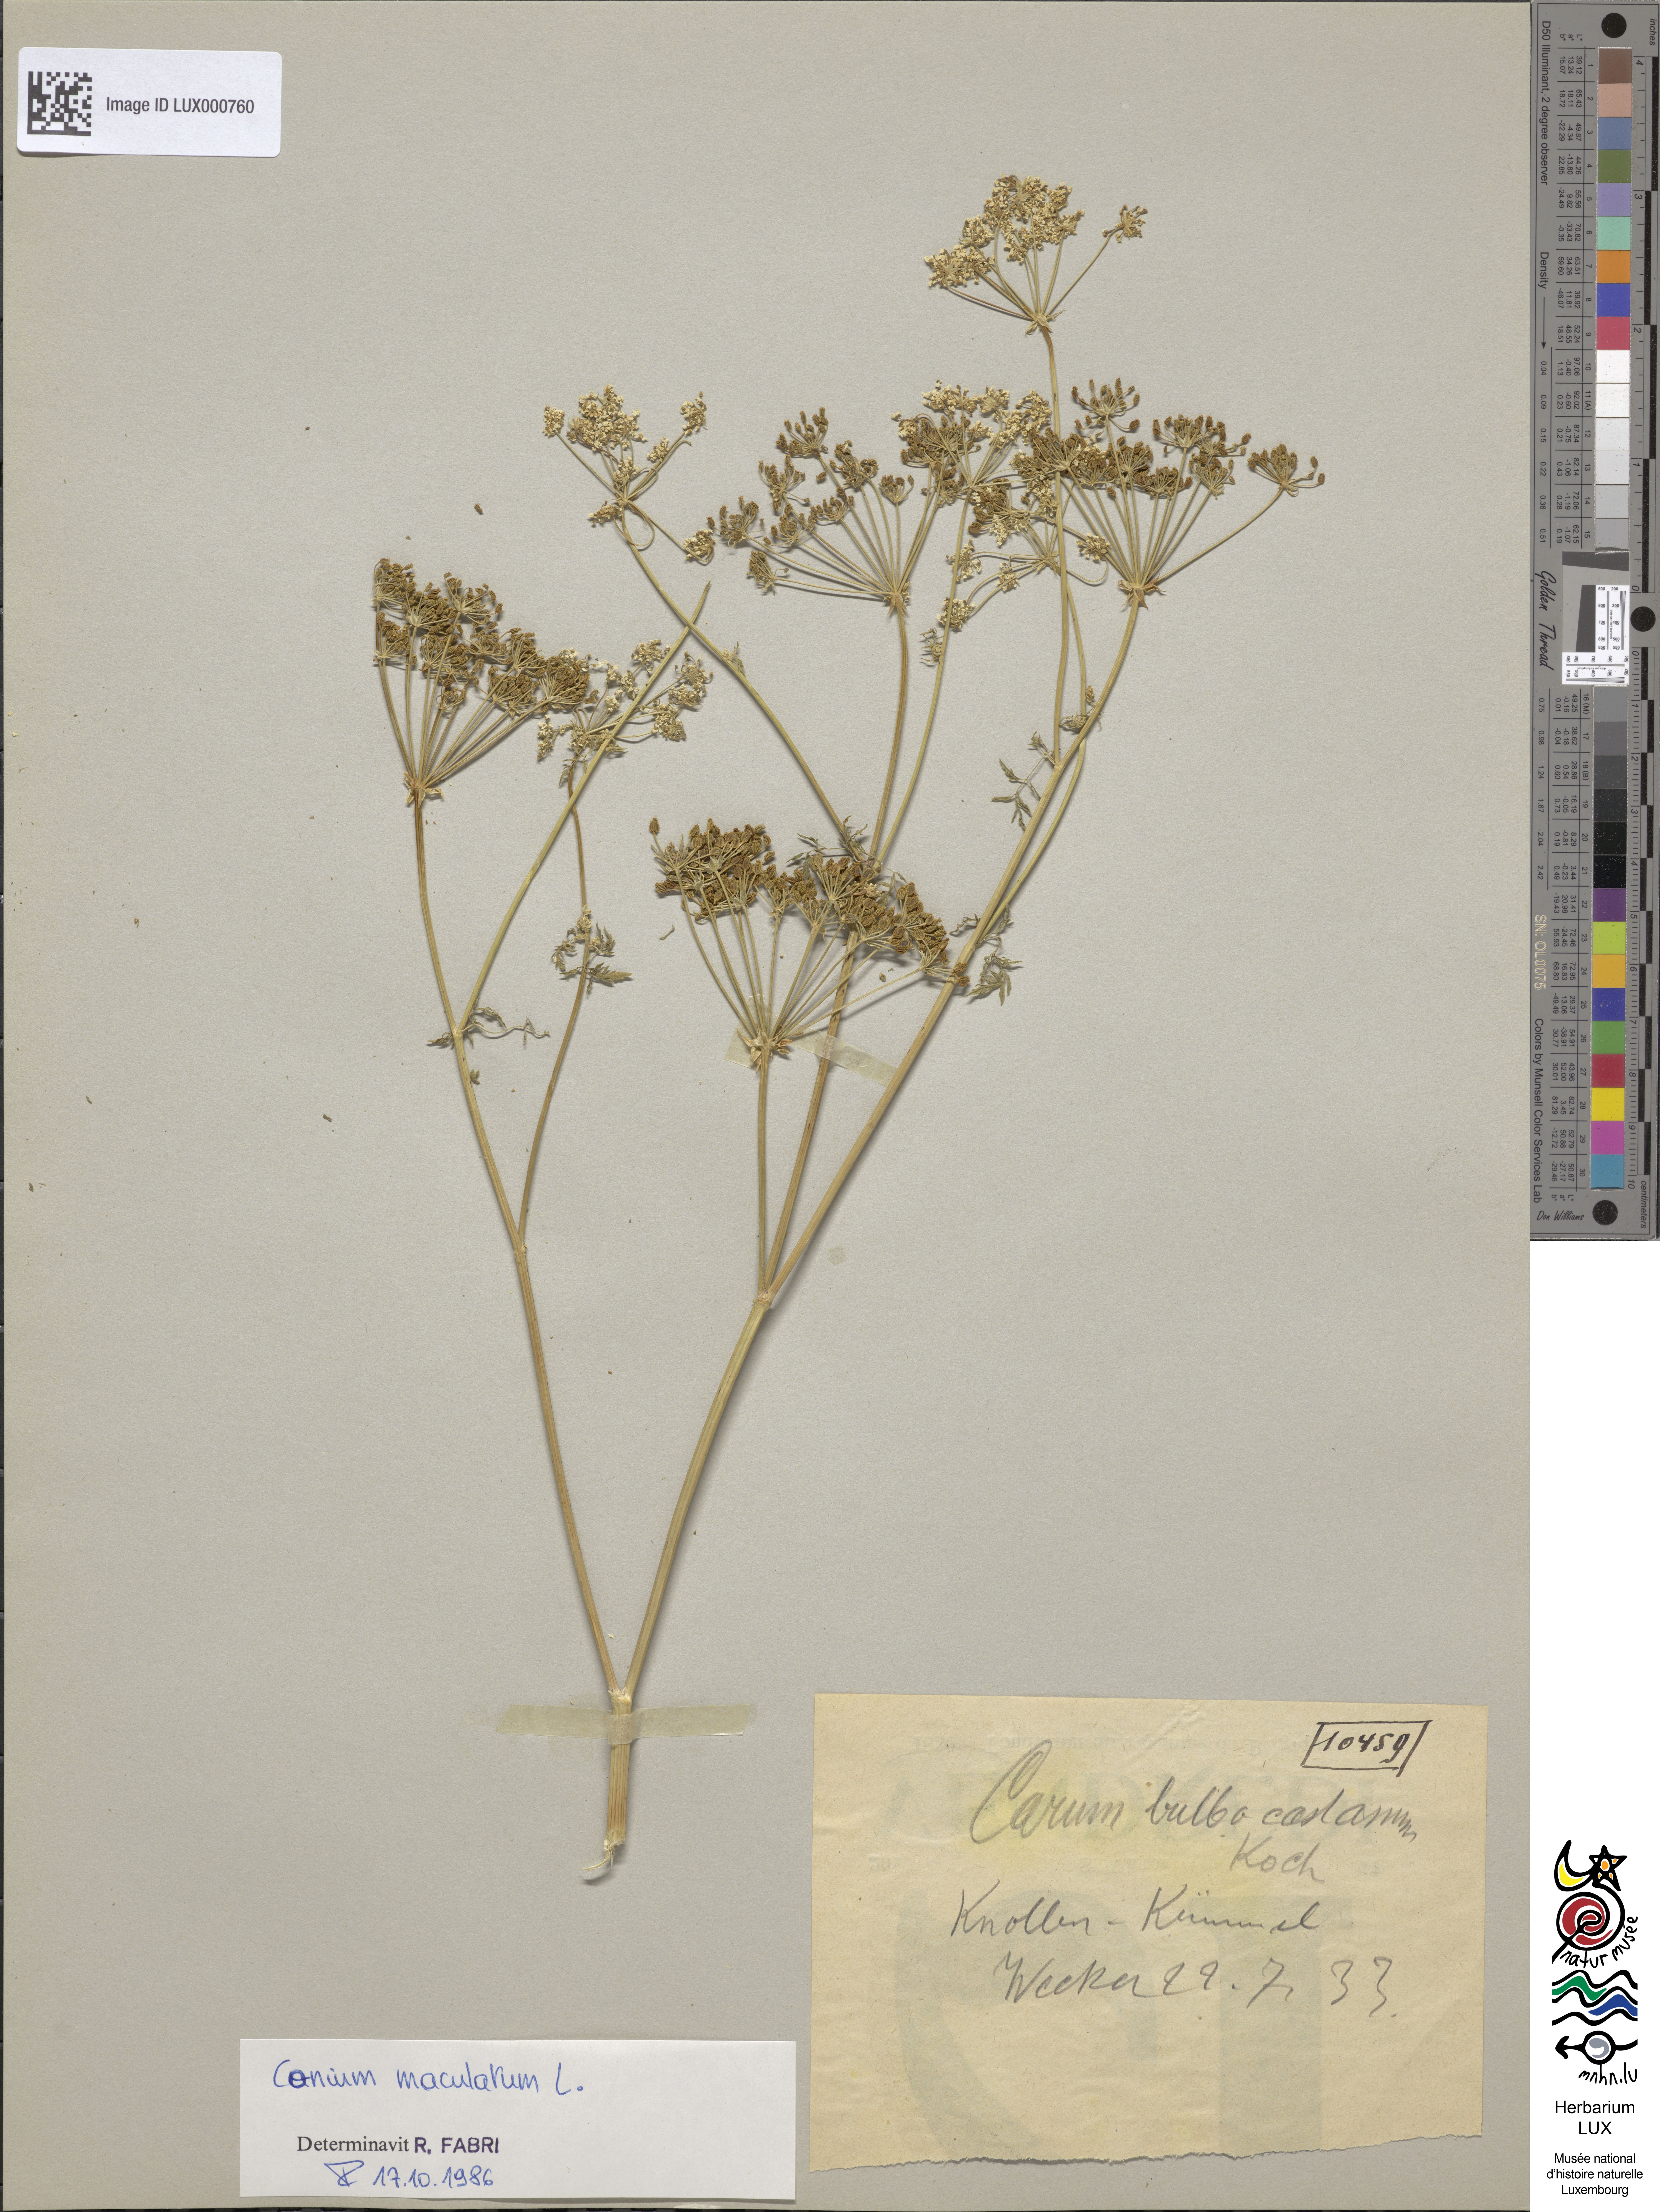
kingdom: Plantae
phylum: Tracheophyta
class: Magnoliopsida
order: Apiales
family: Apiaceae
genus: Conium
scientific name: Conium maculatum
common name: Hemlock
